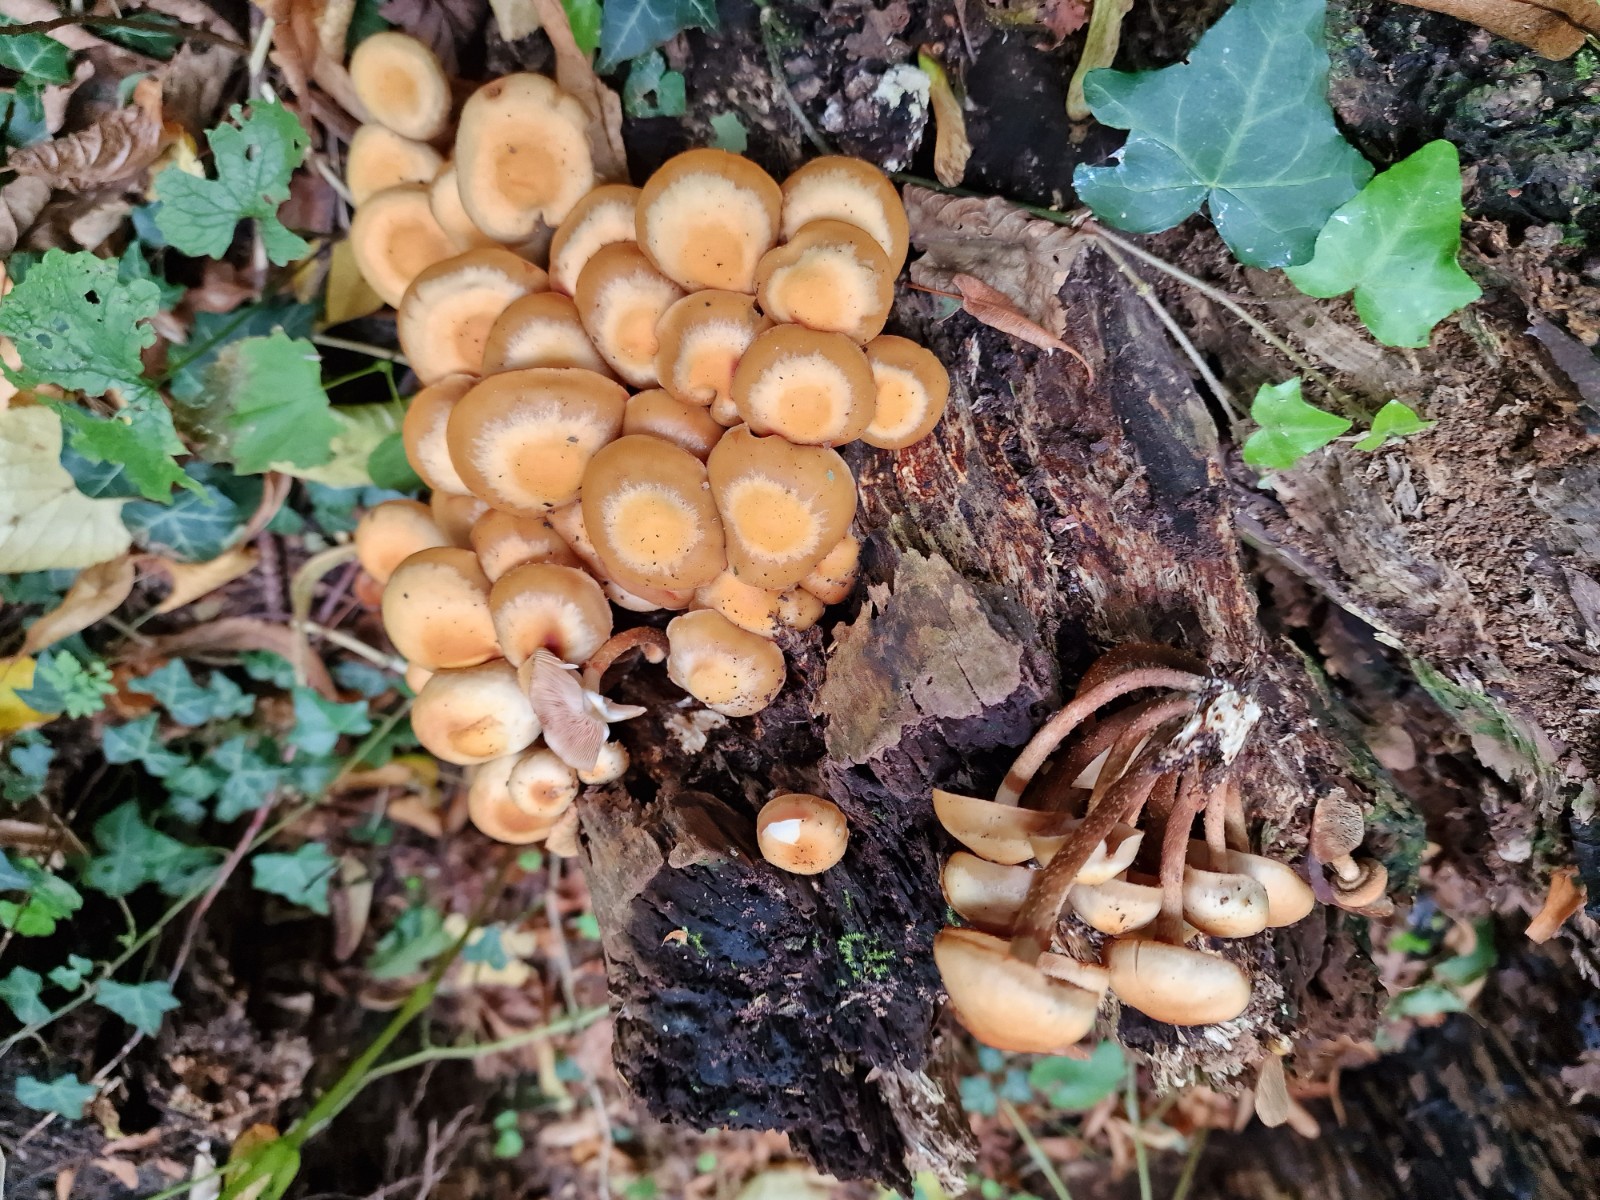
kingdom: Fungi
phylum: Basidiomycota
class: Agaricomycetes
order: Agaricales
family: Strophariaceae
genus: Kuehneromyces
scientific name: Kuehneromyces mutabilis
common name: foranderlig skælhat
